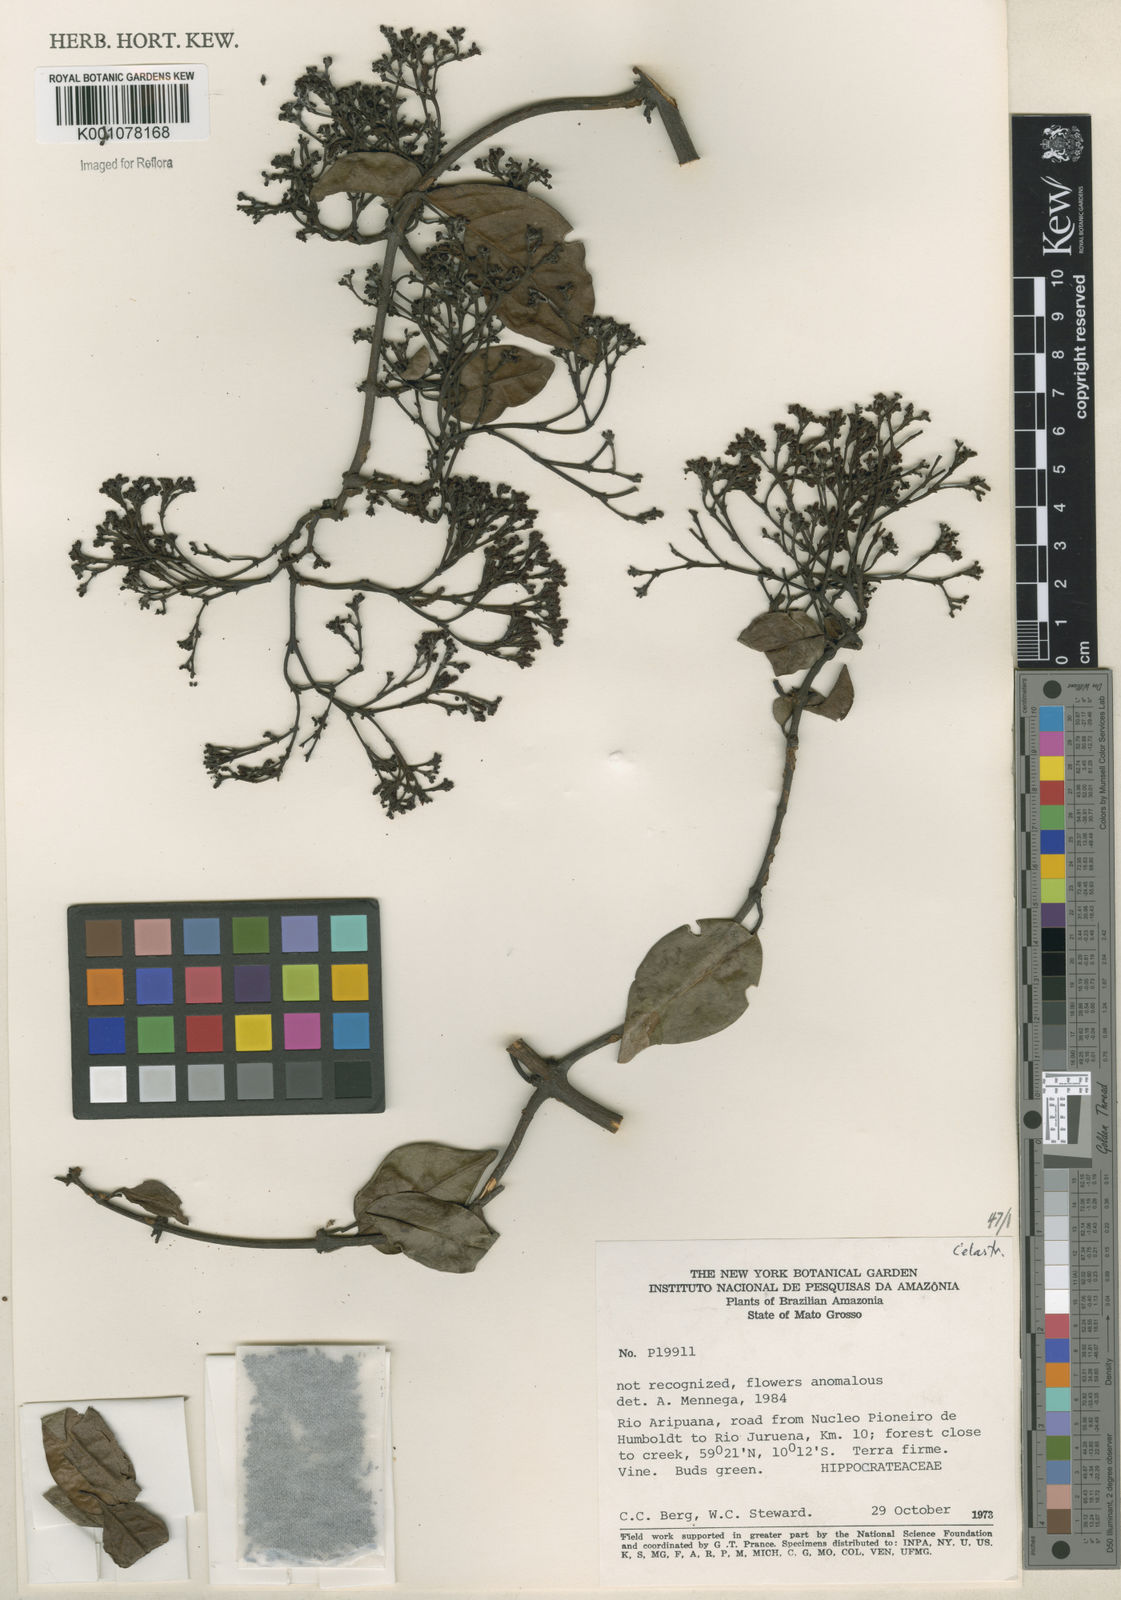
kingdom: Plantae
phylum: Tracheophyta
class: Magnoliopsida
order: Celastrales
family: Celastraceae
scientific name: Celastraceae
